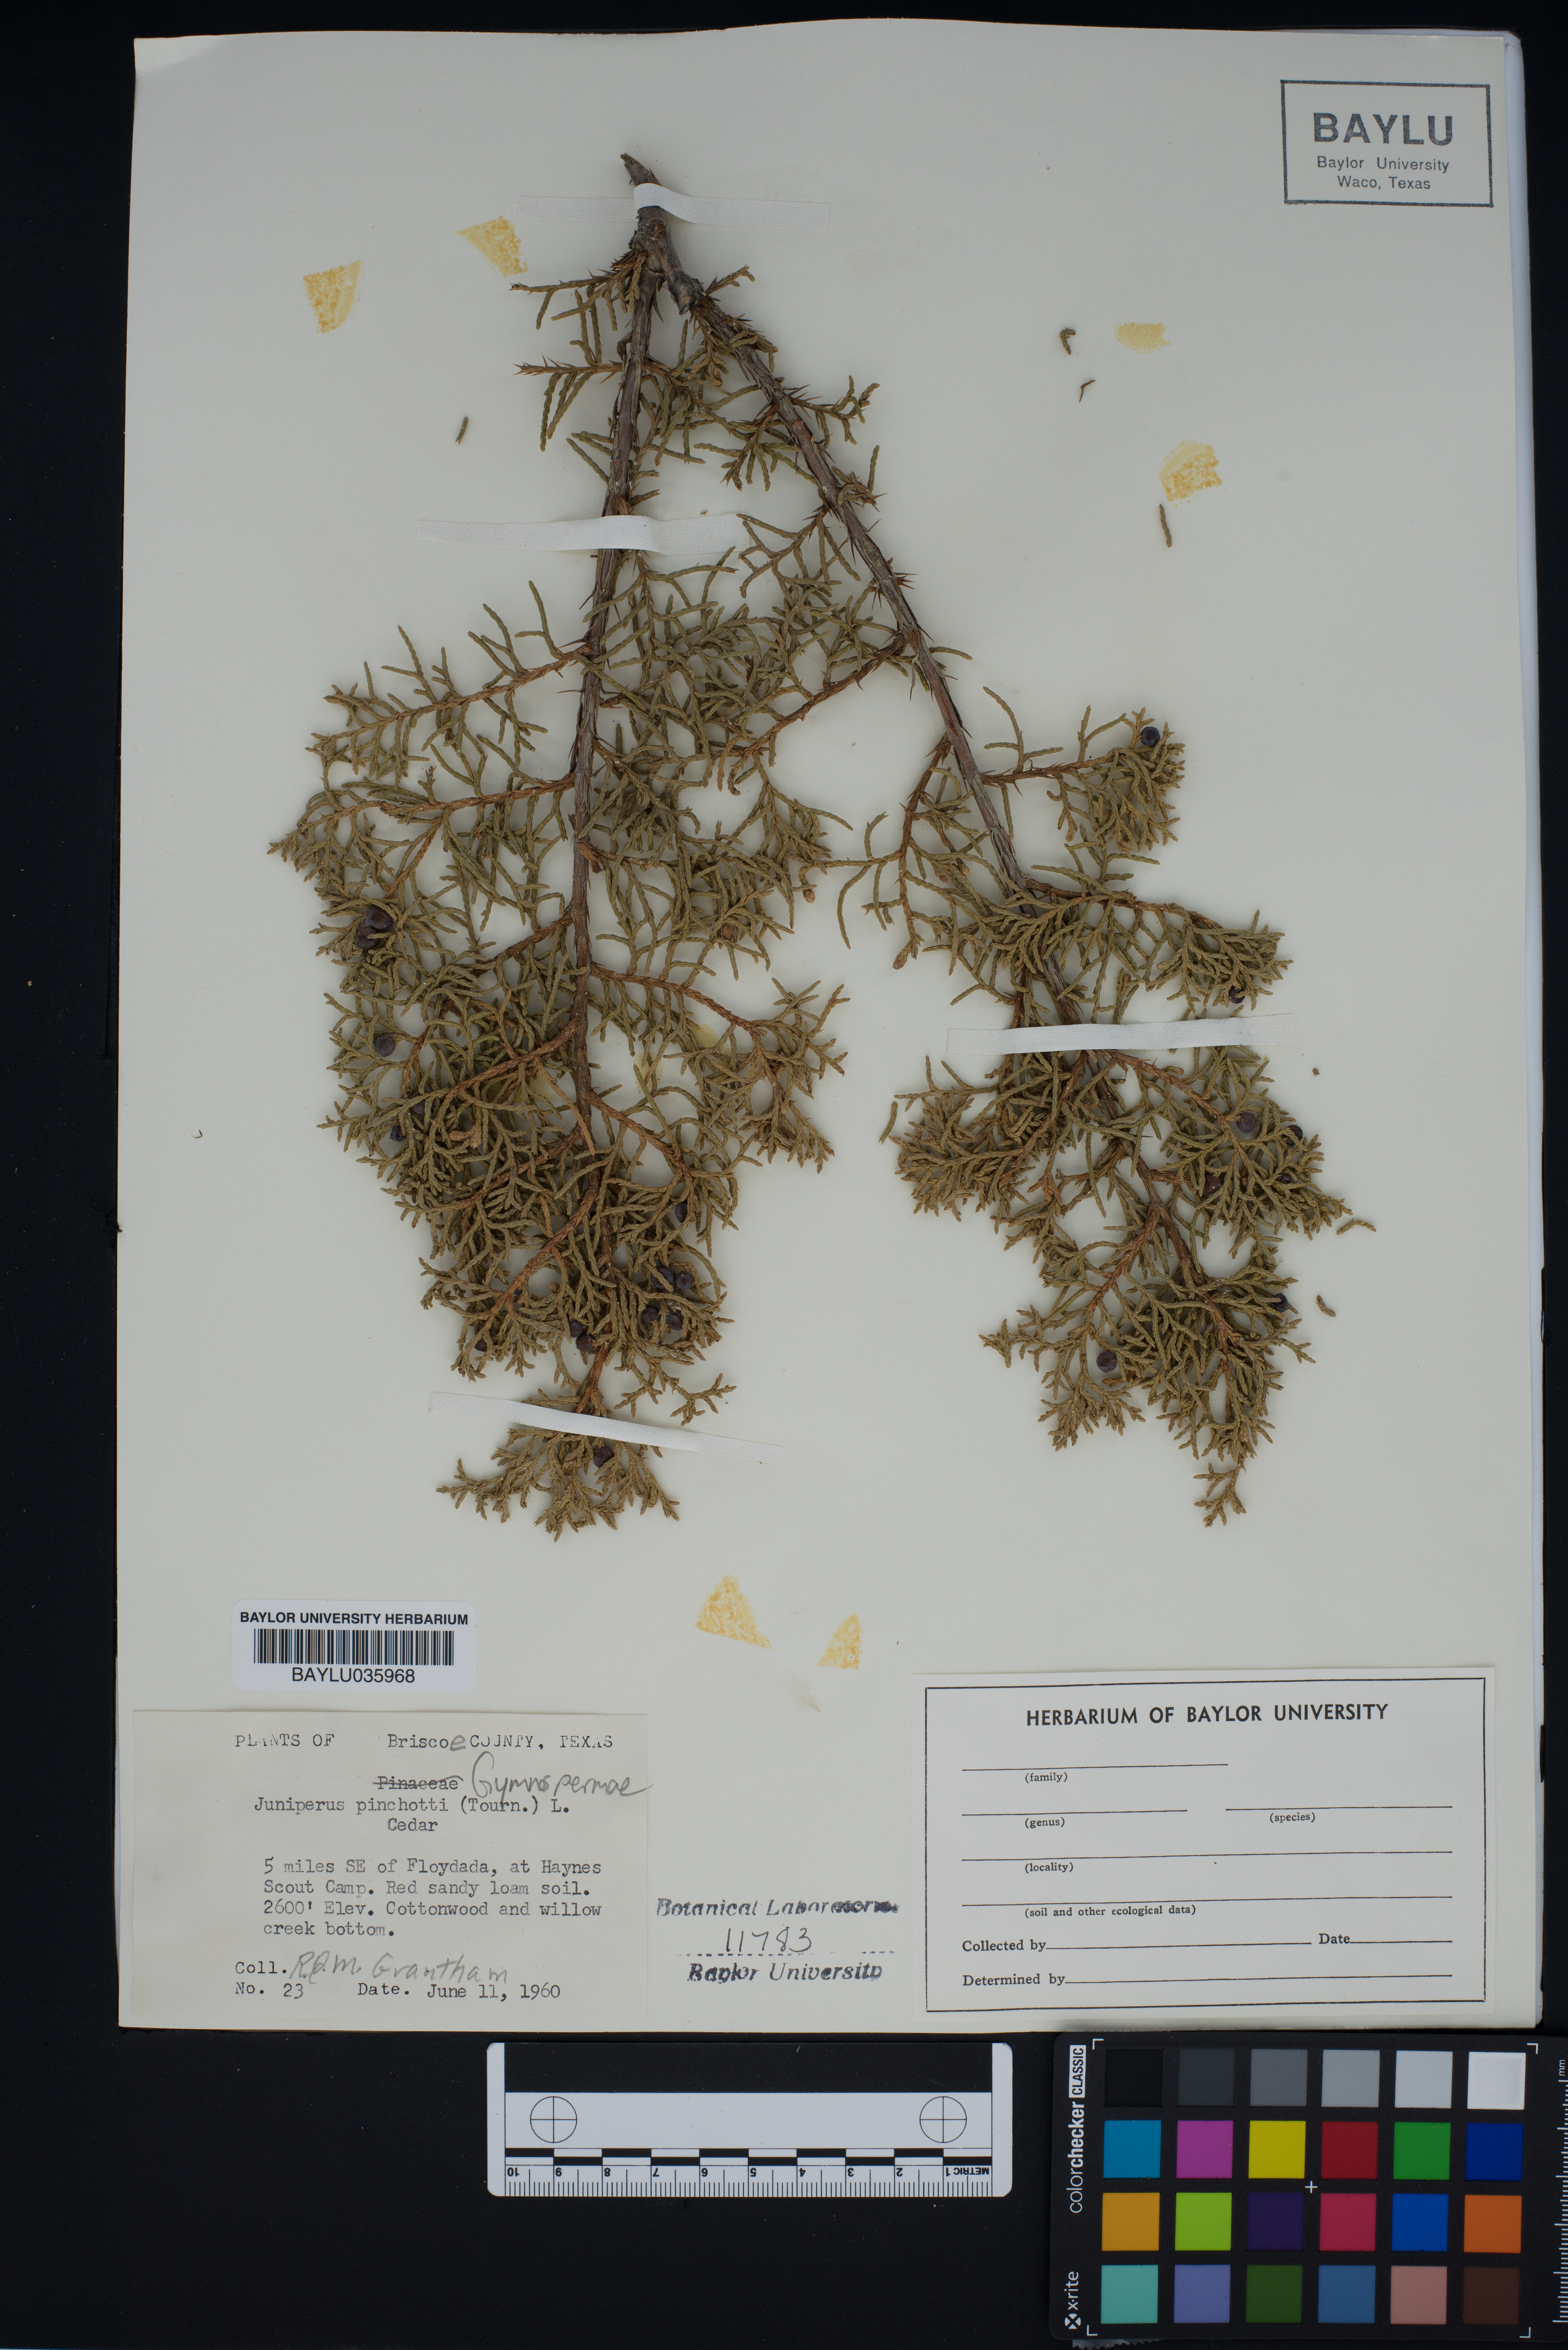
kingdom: Plantae
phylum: Tracheophyta
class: Pinopsida
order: Pinales
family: Cupressaceae
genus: Juniperus
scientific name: Juniperus pinchotii
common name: Pinchot juniper
